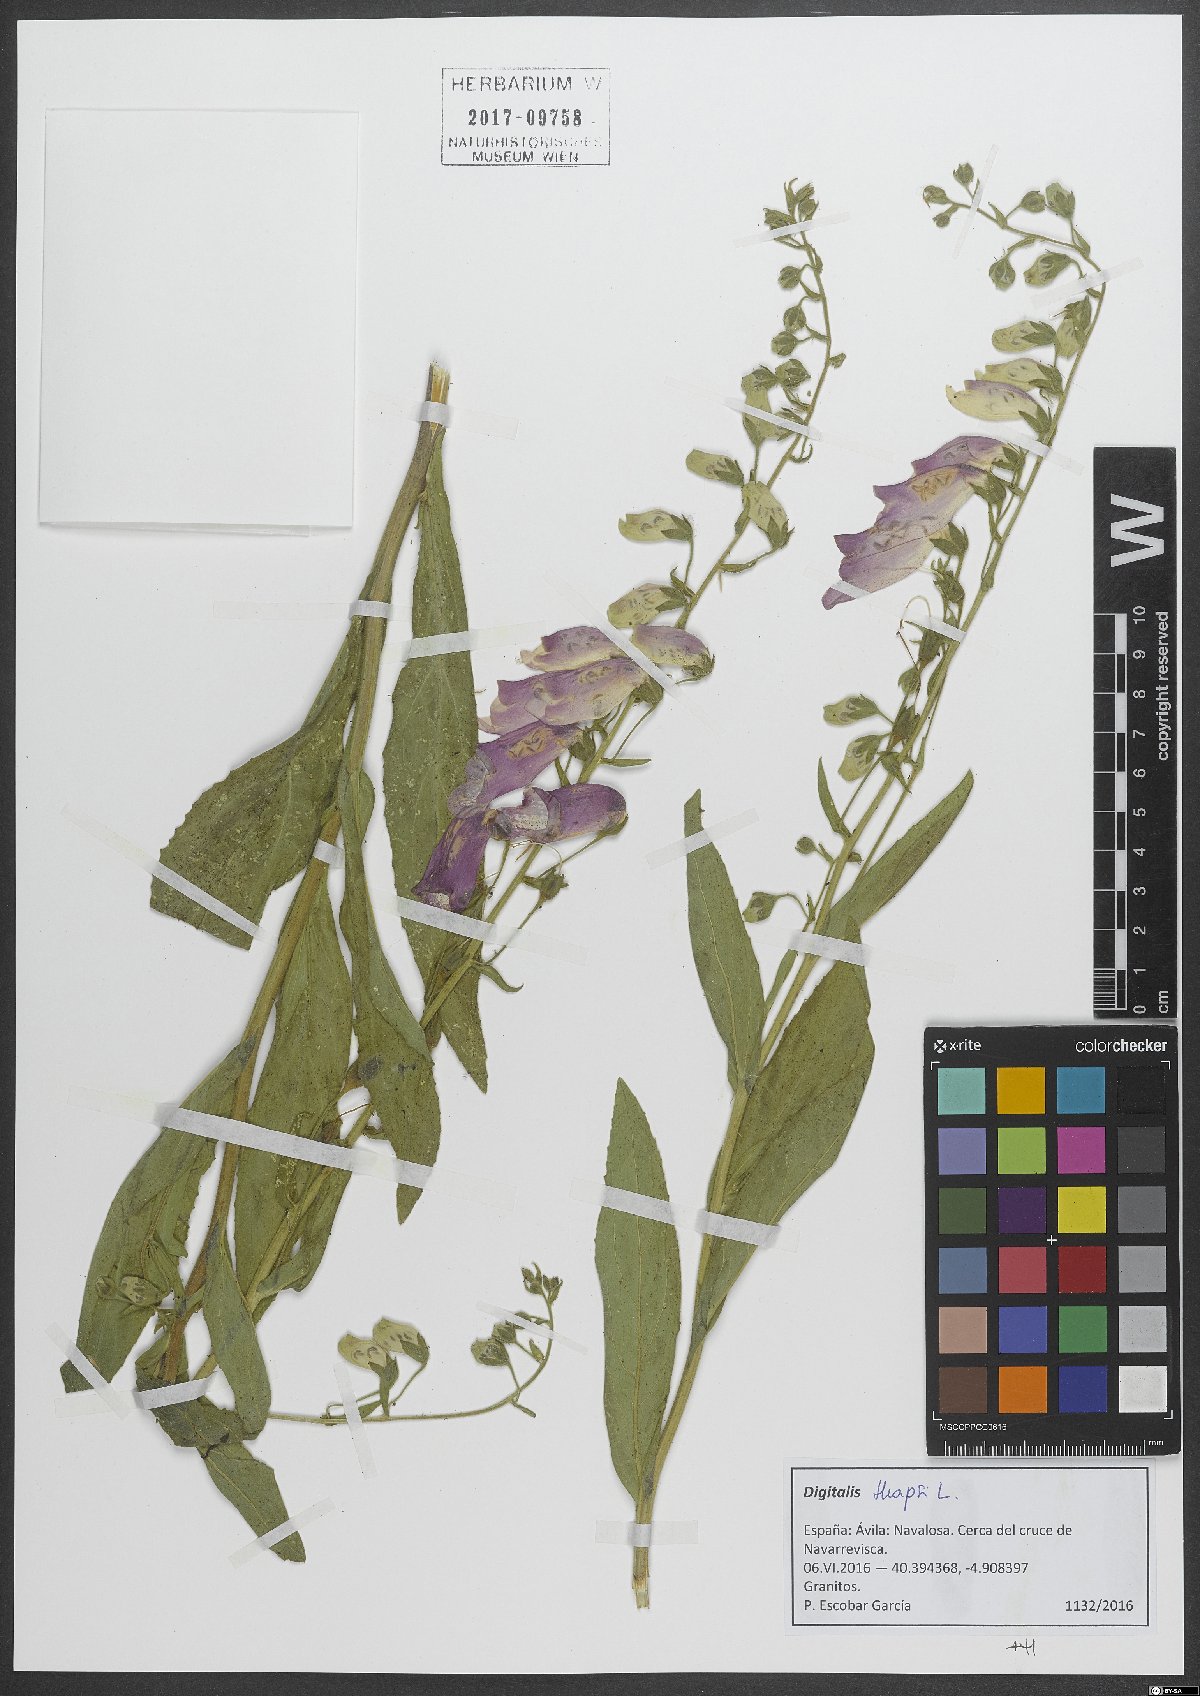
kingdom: Plantae
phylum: Tracheophyta
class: Magnoliopsida
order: Lamiales
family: Plantaginaceae
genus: Digitalis
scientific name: Digitalis thapsi
